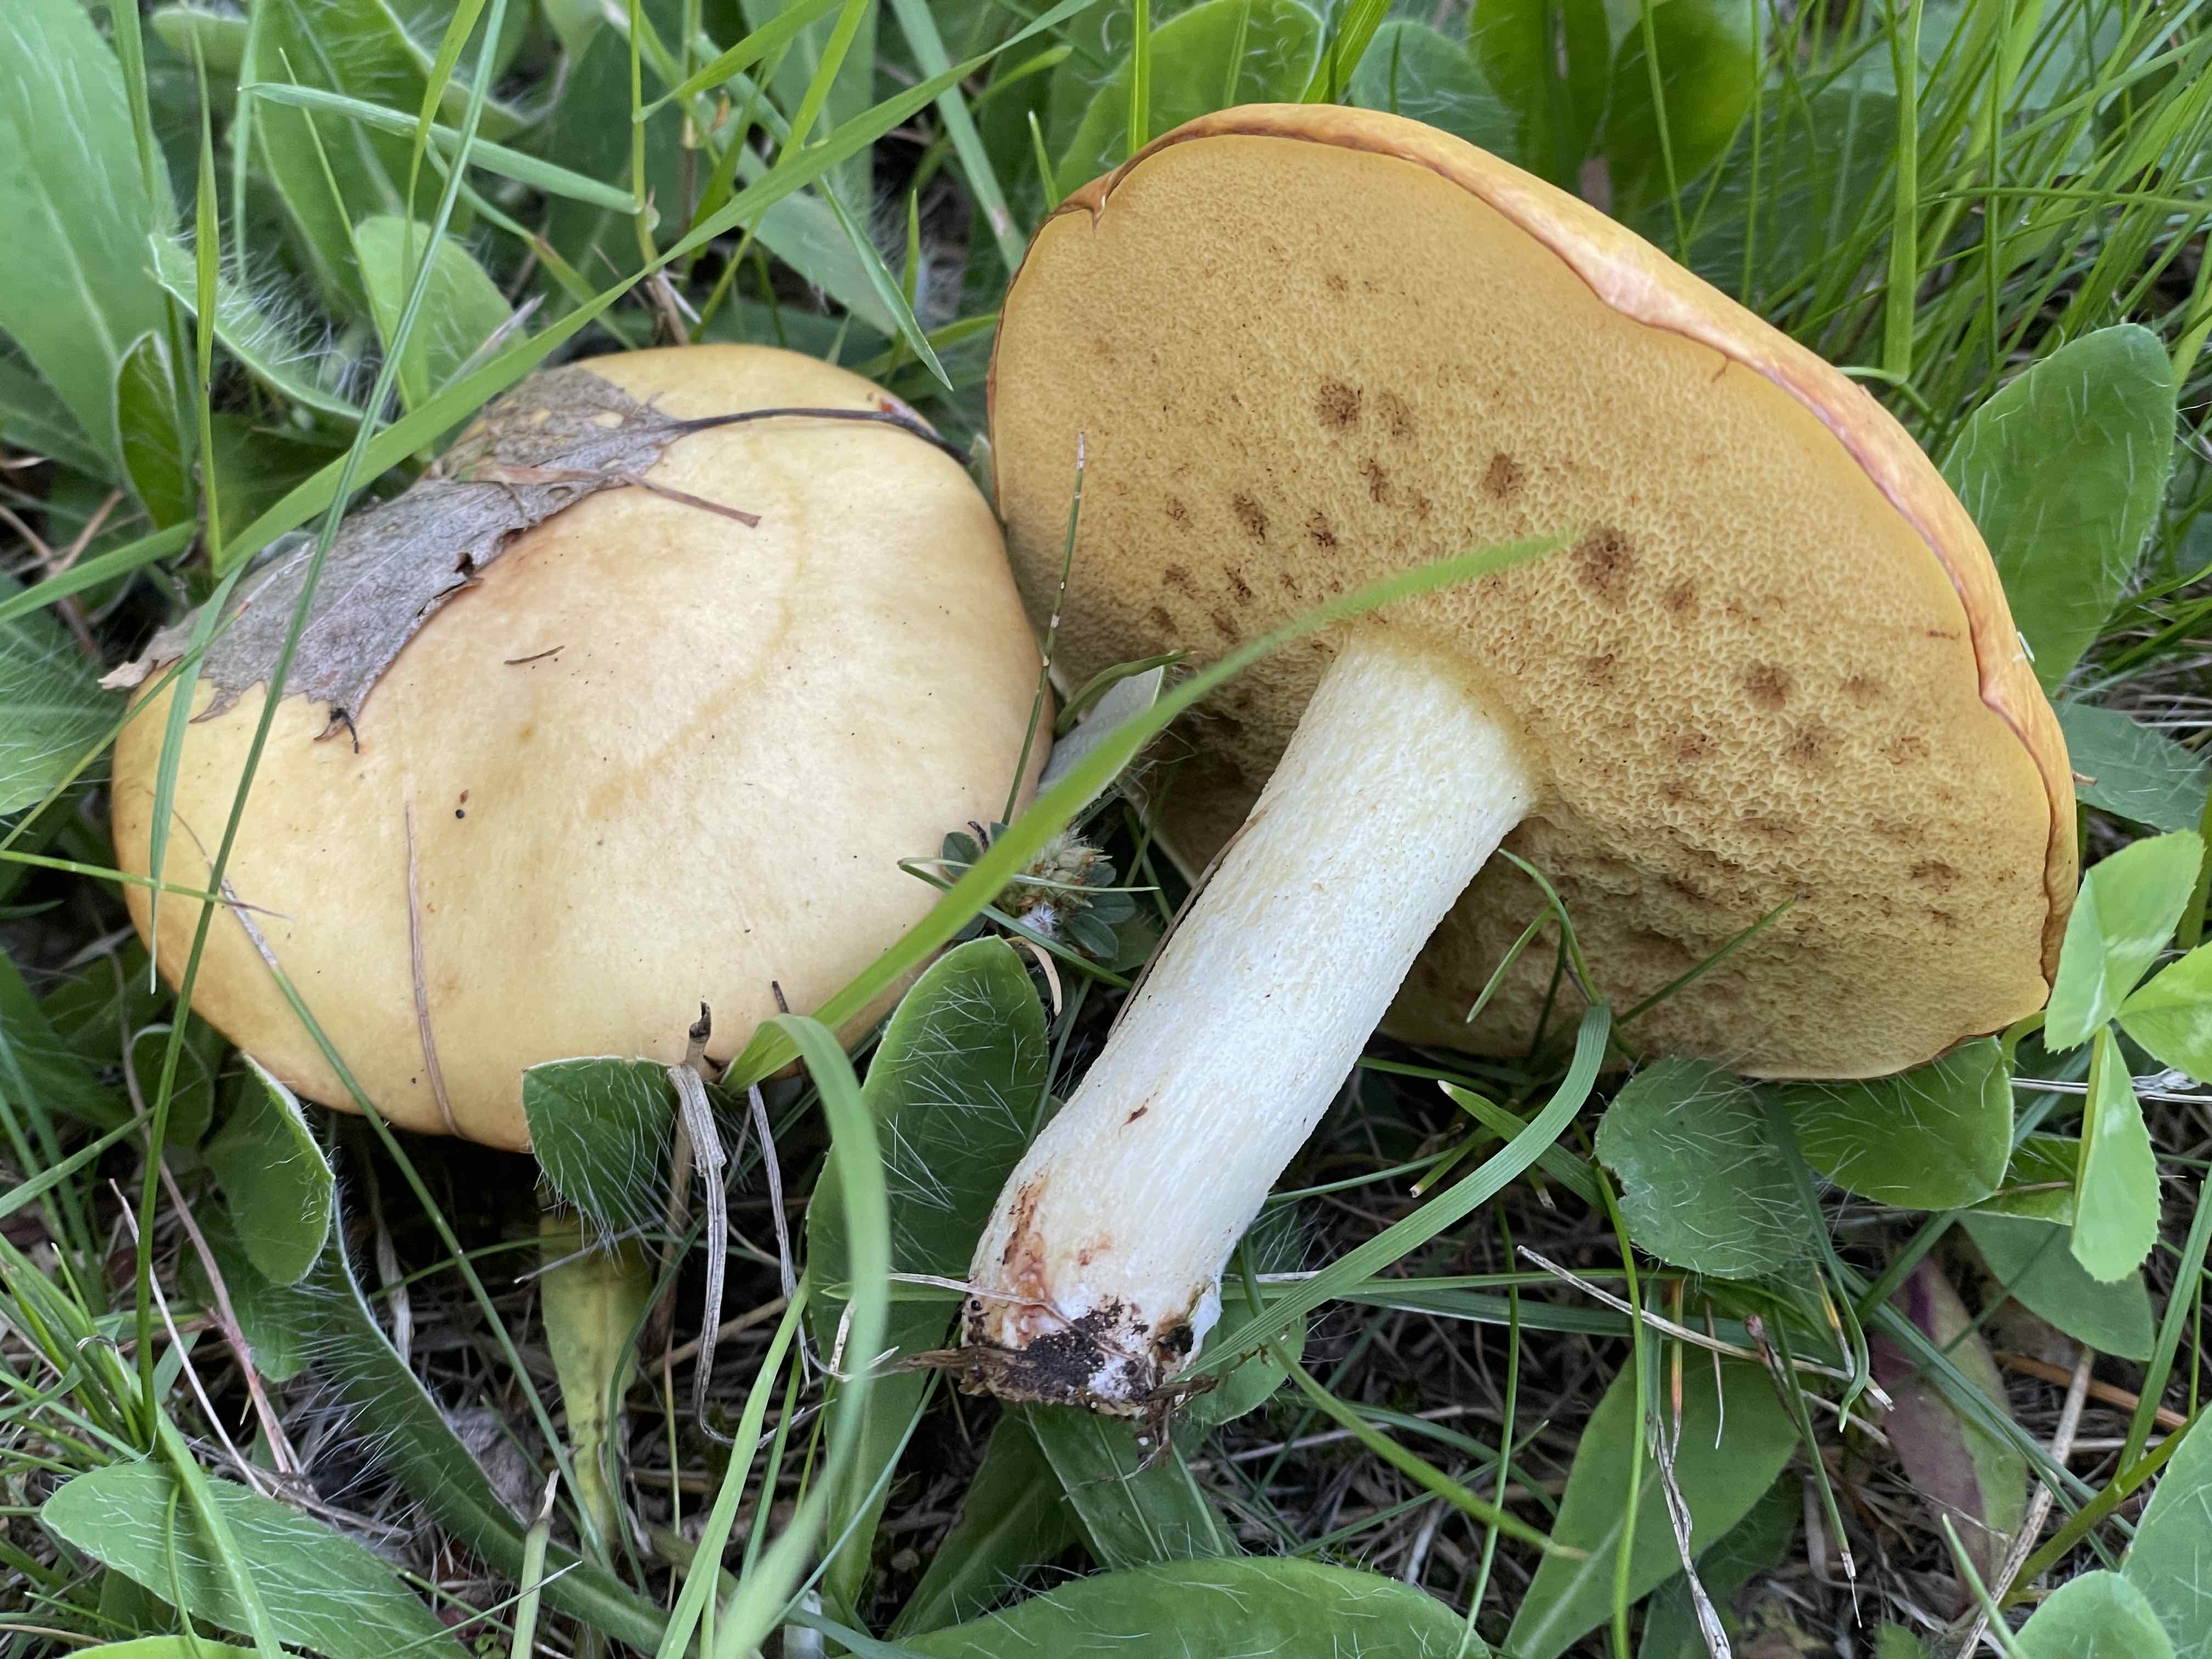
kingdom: Fungi
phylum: Basidiomycota
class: Agaricomycetes
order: Boletales
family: Suillaceae
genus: Suillus
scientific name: Suillus granulatus
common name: kornet slimrørhat
